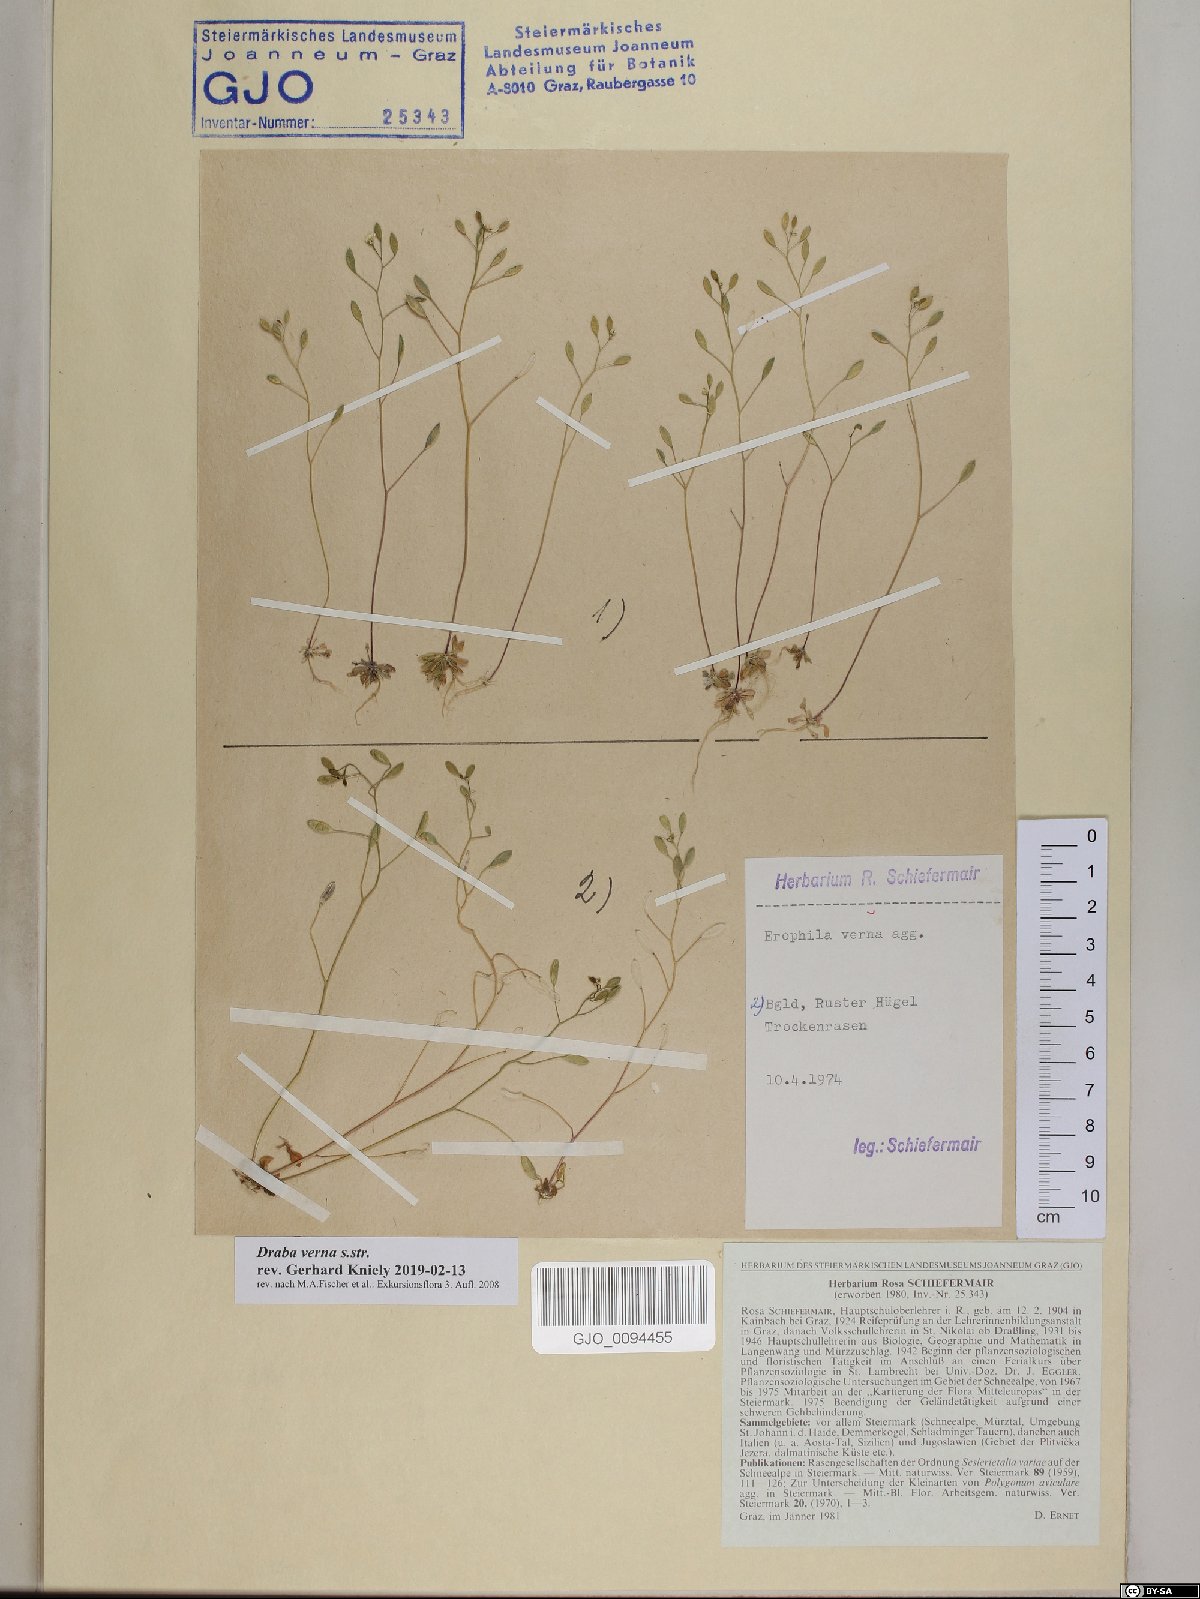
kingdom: Plantae
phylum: Tracheophyta
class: Magnoliopsida
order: Brassicales
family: Brassicaceae
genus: Draba
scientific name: Draba verna
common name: Spring draba
